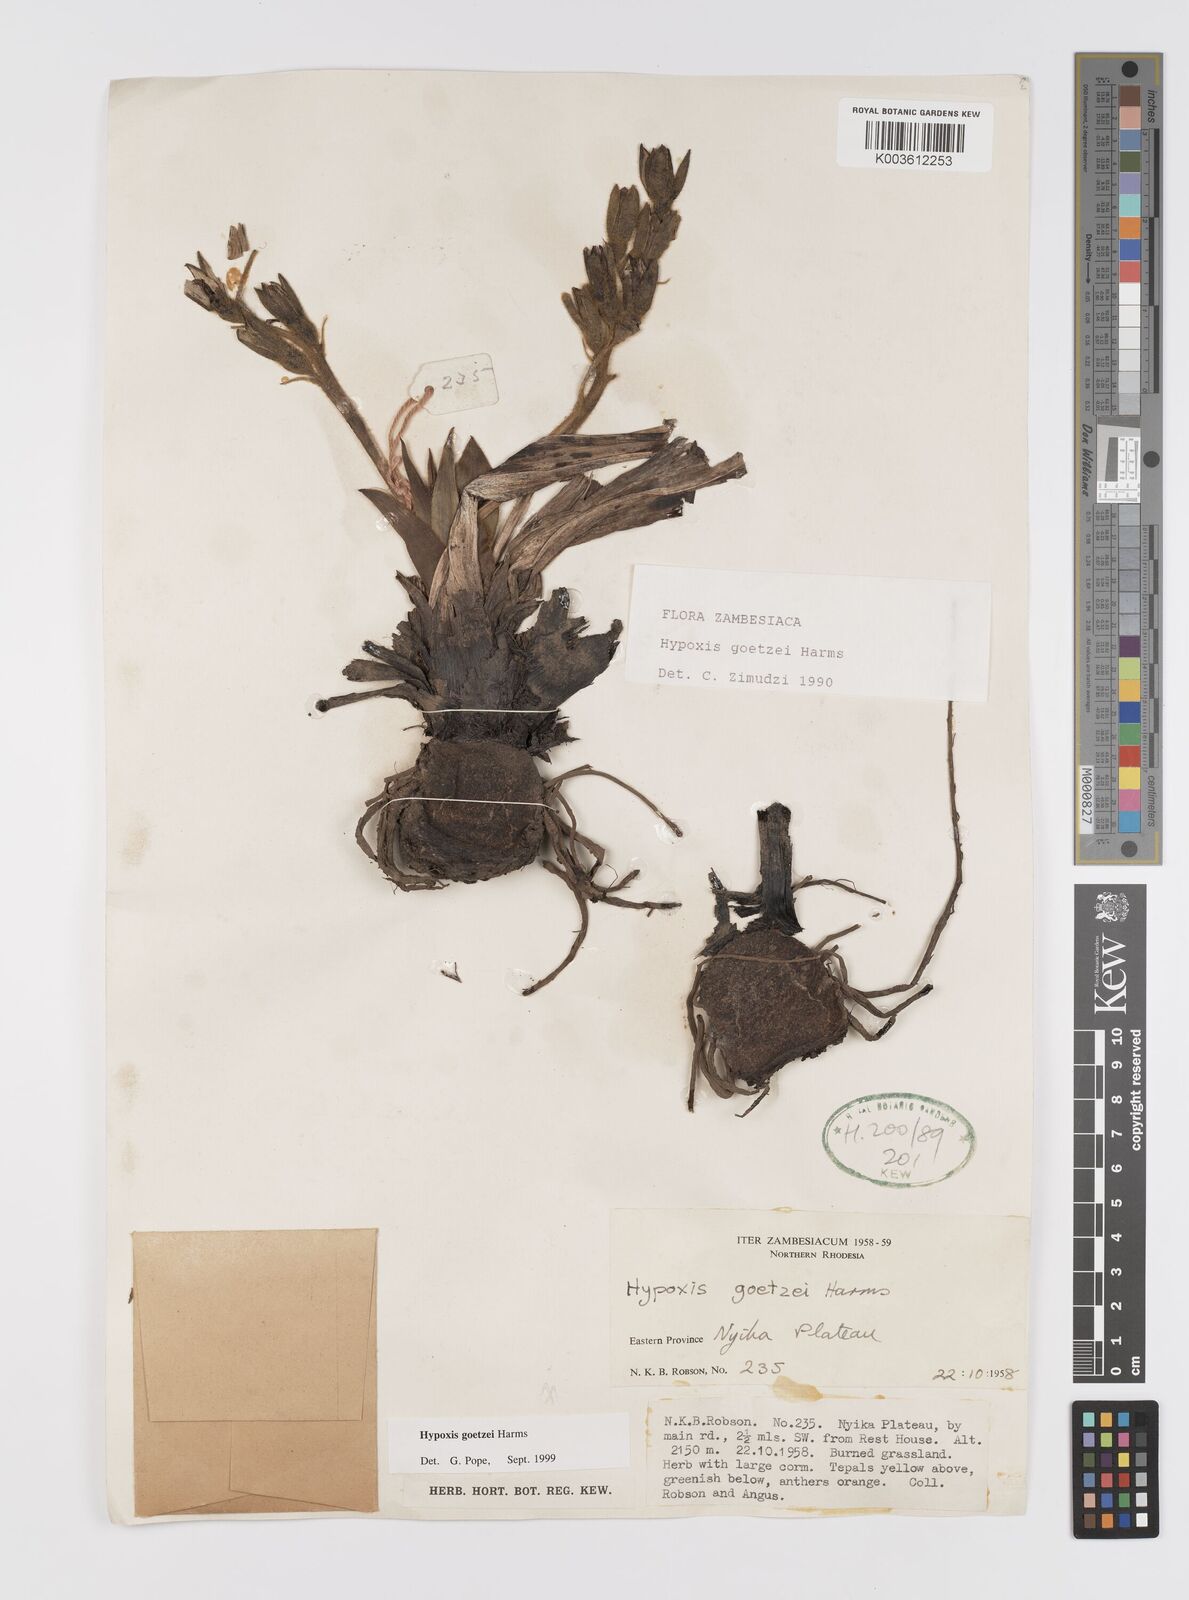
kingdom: Plantae
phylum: Tracheophyta
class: Liliopsida
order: Asparagales
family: Hypoxidaceae
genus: Hypoxis
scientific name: Hypoxis goetzei
